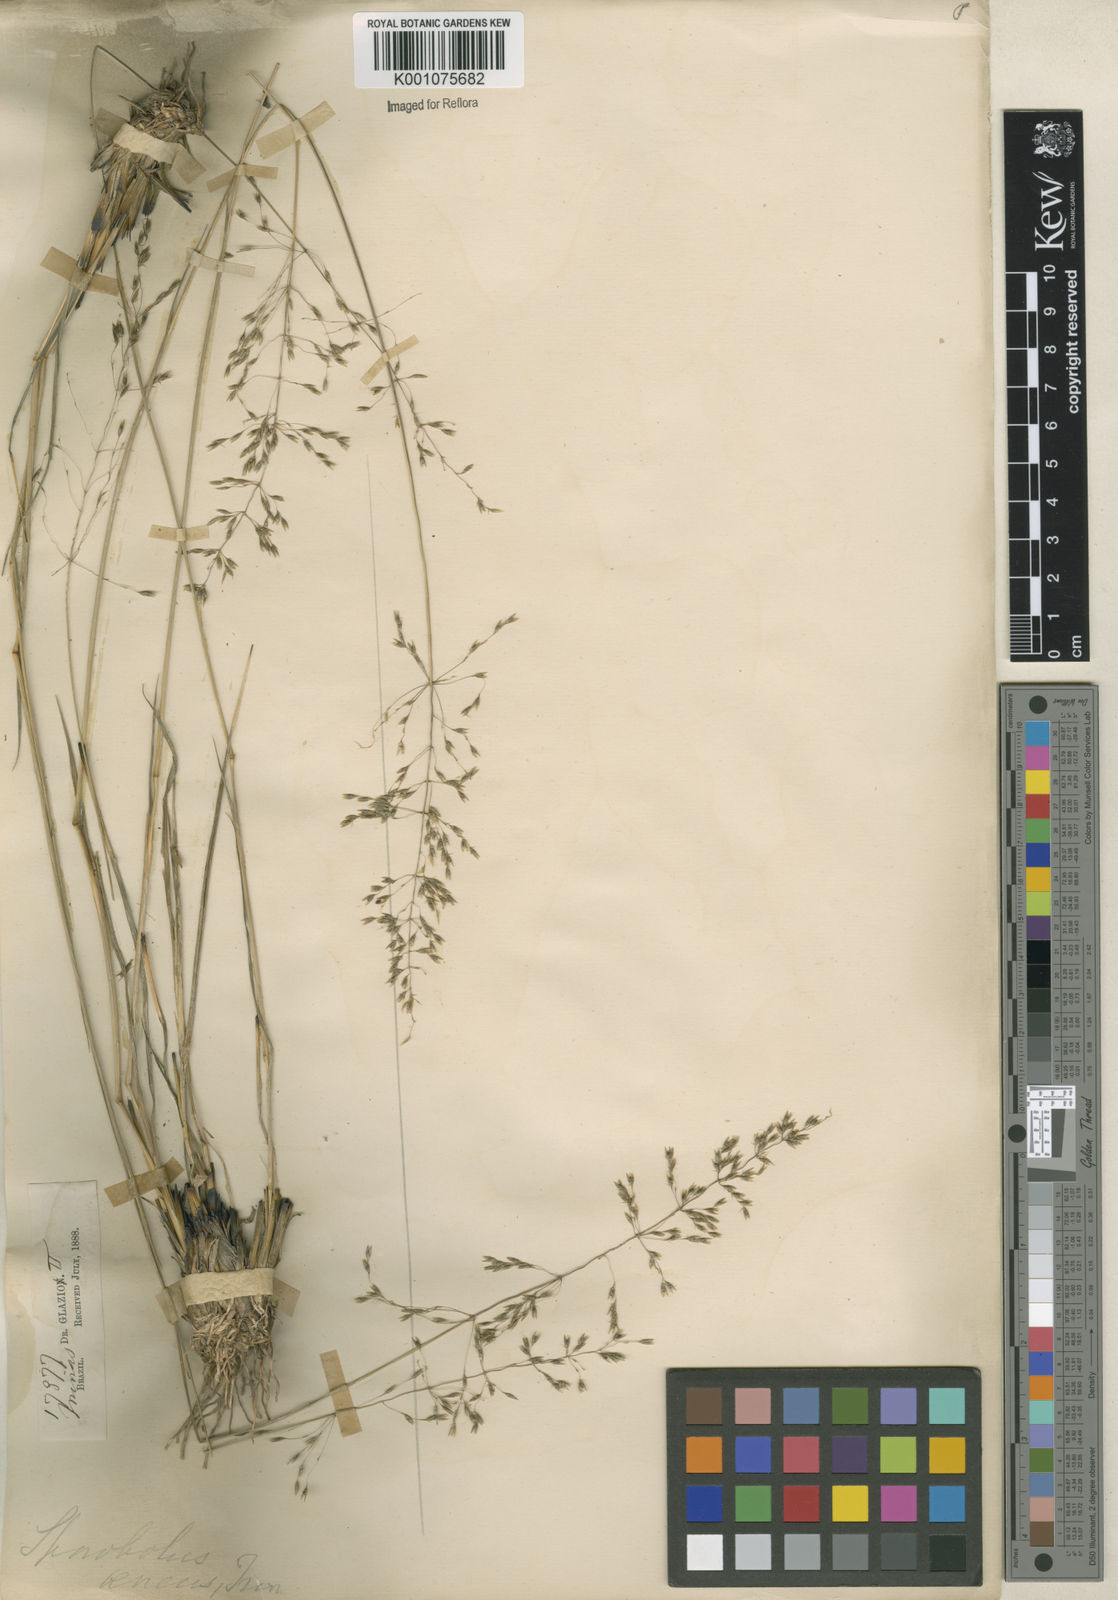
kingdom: Plantae
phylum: Tracheophyta
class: Liliopsida
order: Poales
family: Poaceae
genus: Sporobolus
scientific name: Sporobolus cubensis
